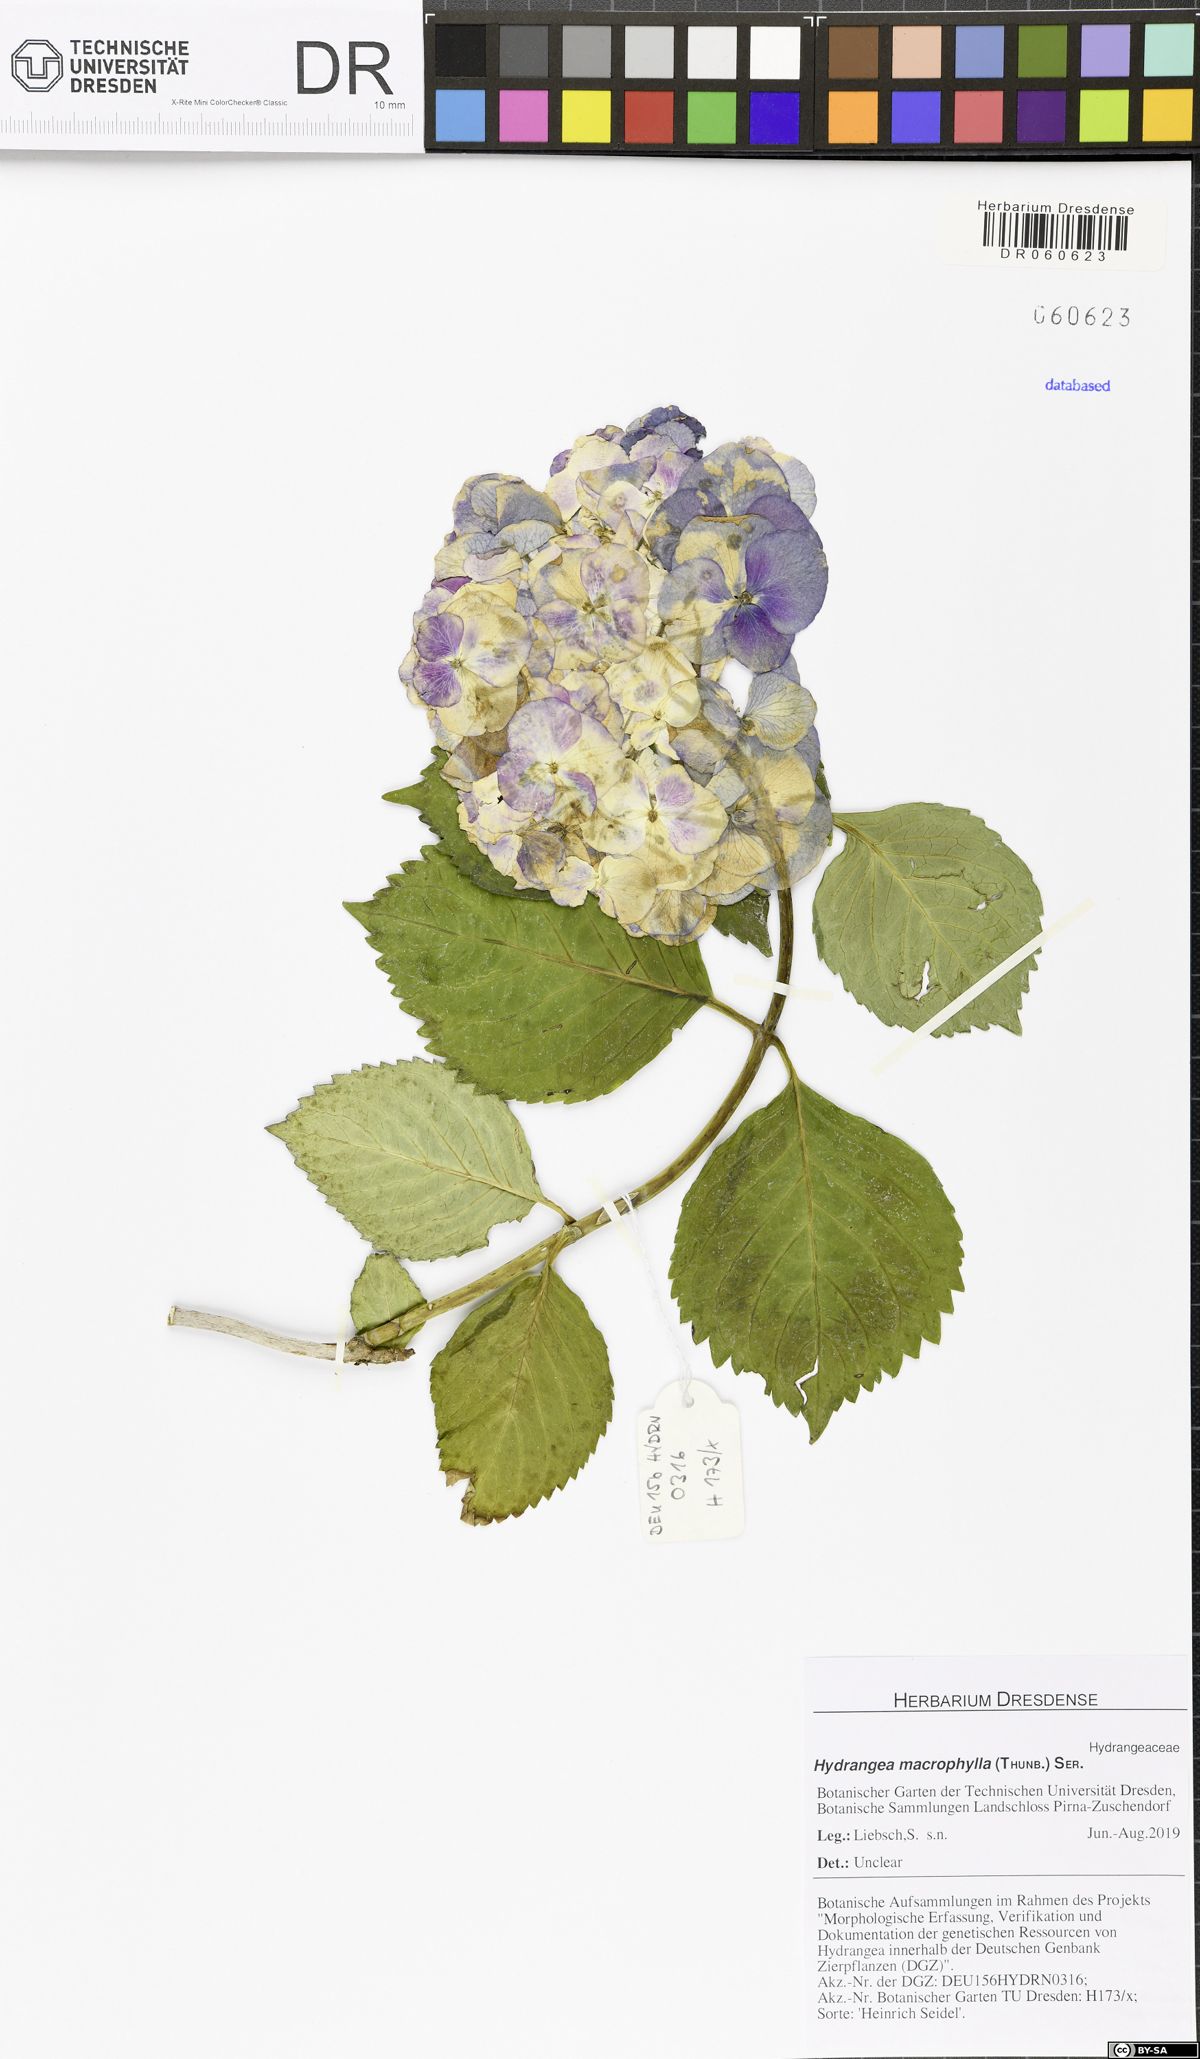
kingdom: Plantae
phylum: Tracheophyta
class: Magnoliopsida
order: Cornales
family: Hydrangeaceae
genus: Hydrangea
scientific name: Hydrangea macrophylla
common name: Hydrangea
